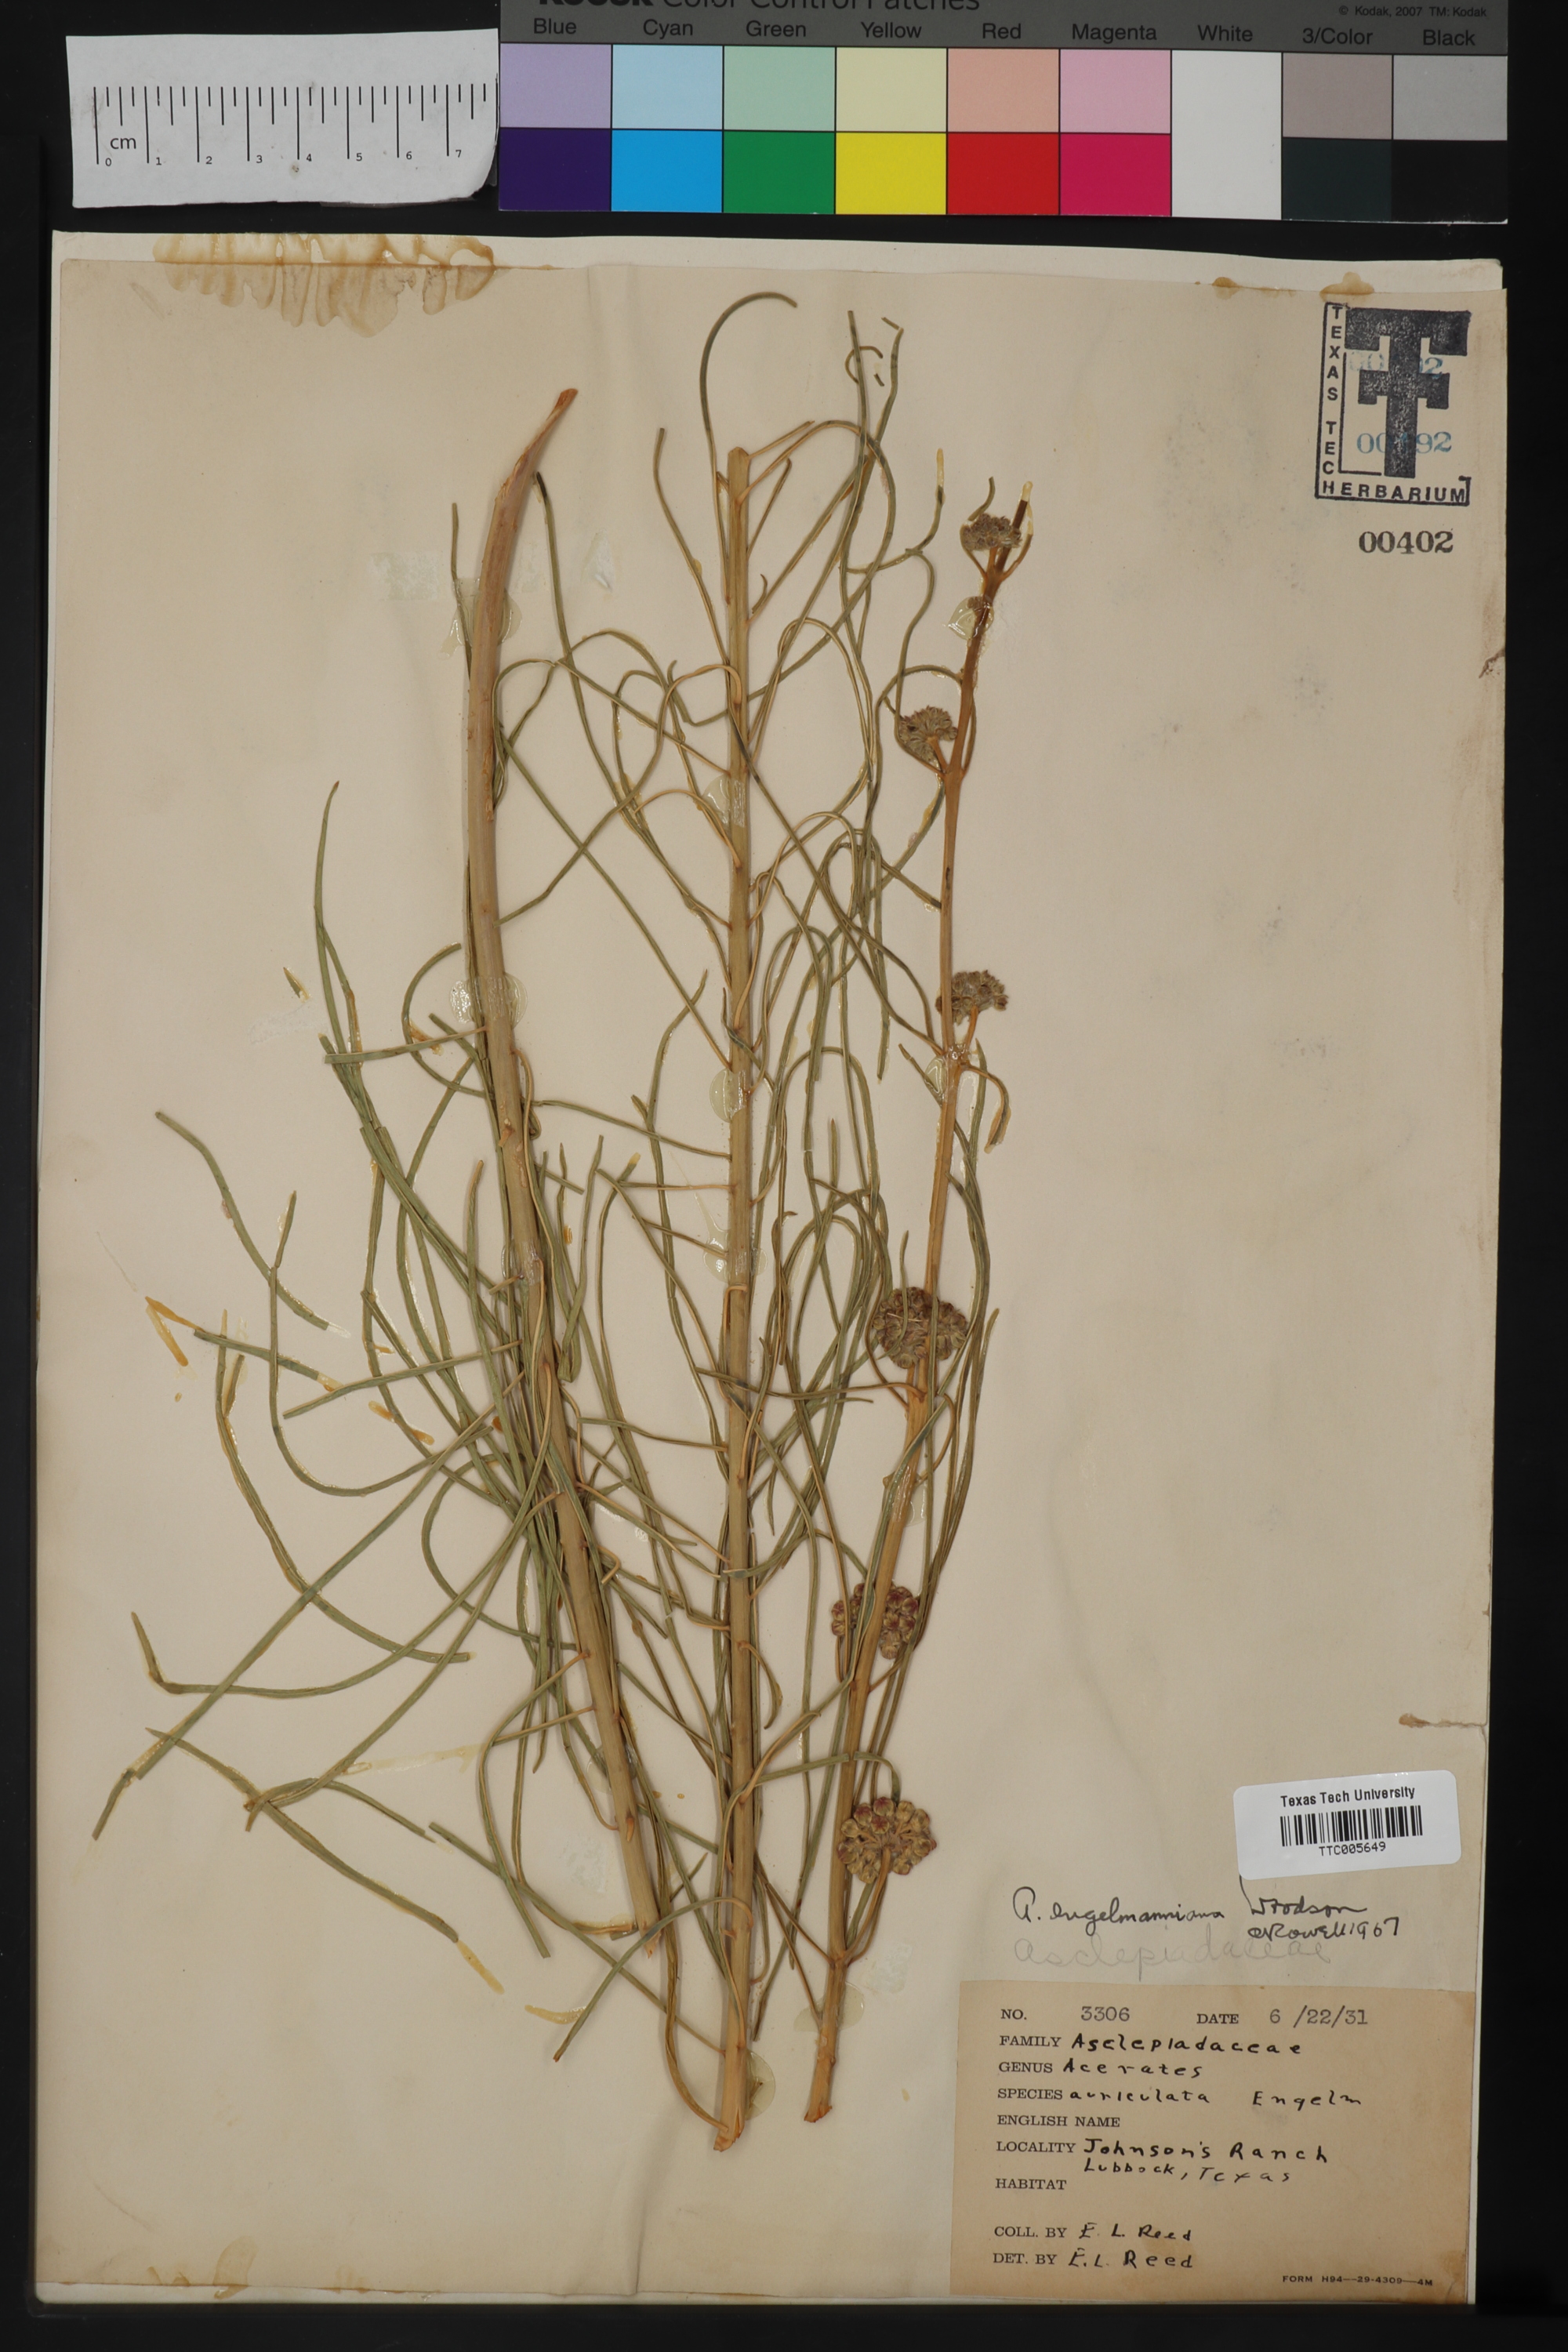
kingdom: Plantae
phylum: Tracheophyta
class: Magnoliopsida
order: Gentianales
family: Apocynaceae
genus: Asclepias
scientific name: Asclepias Acerates engelmanniana
